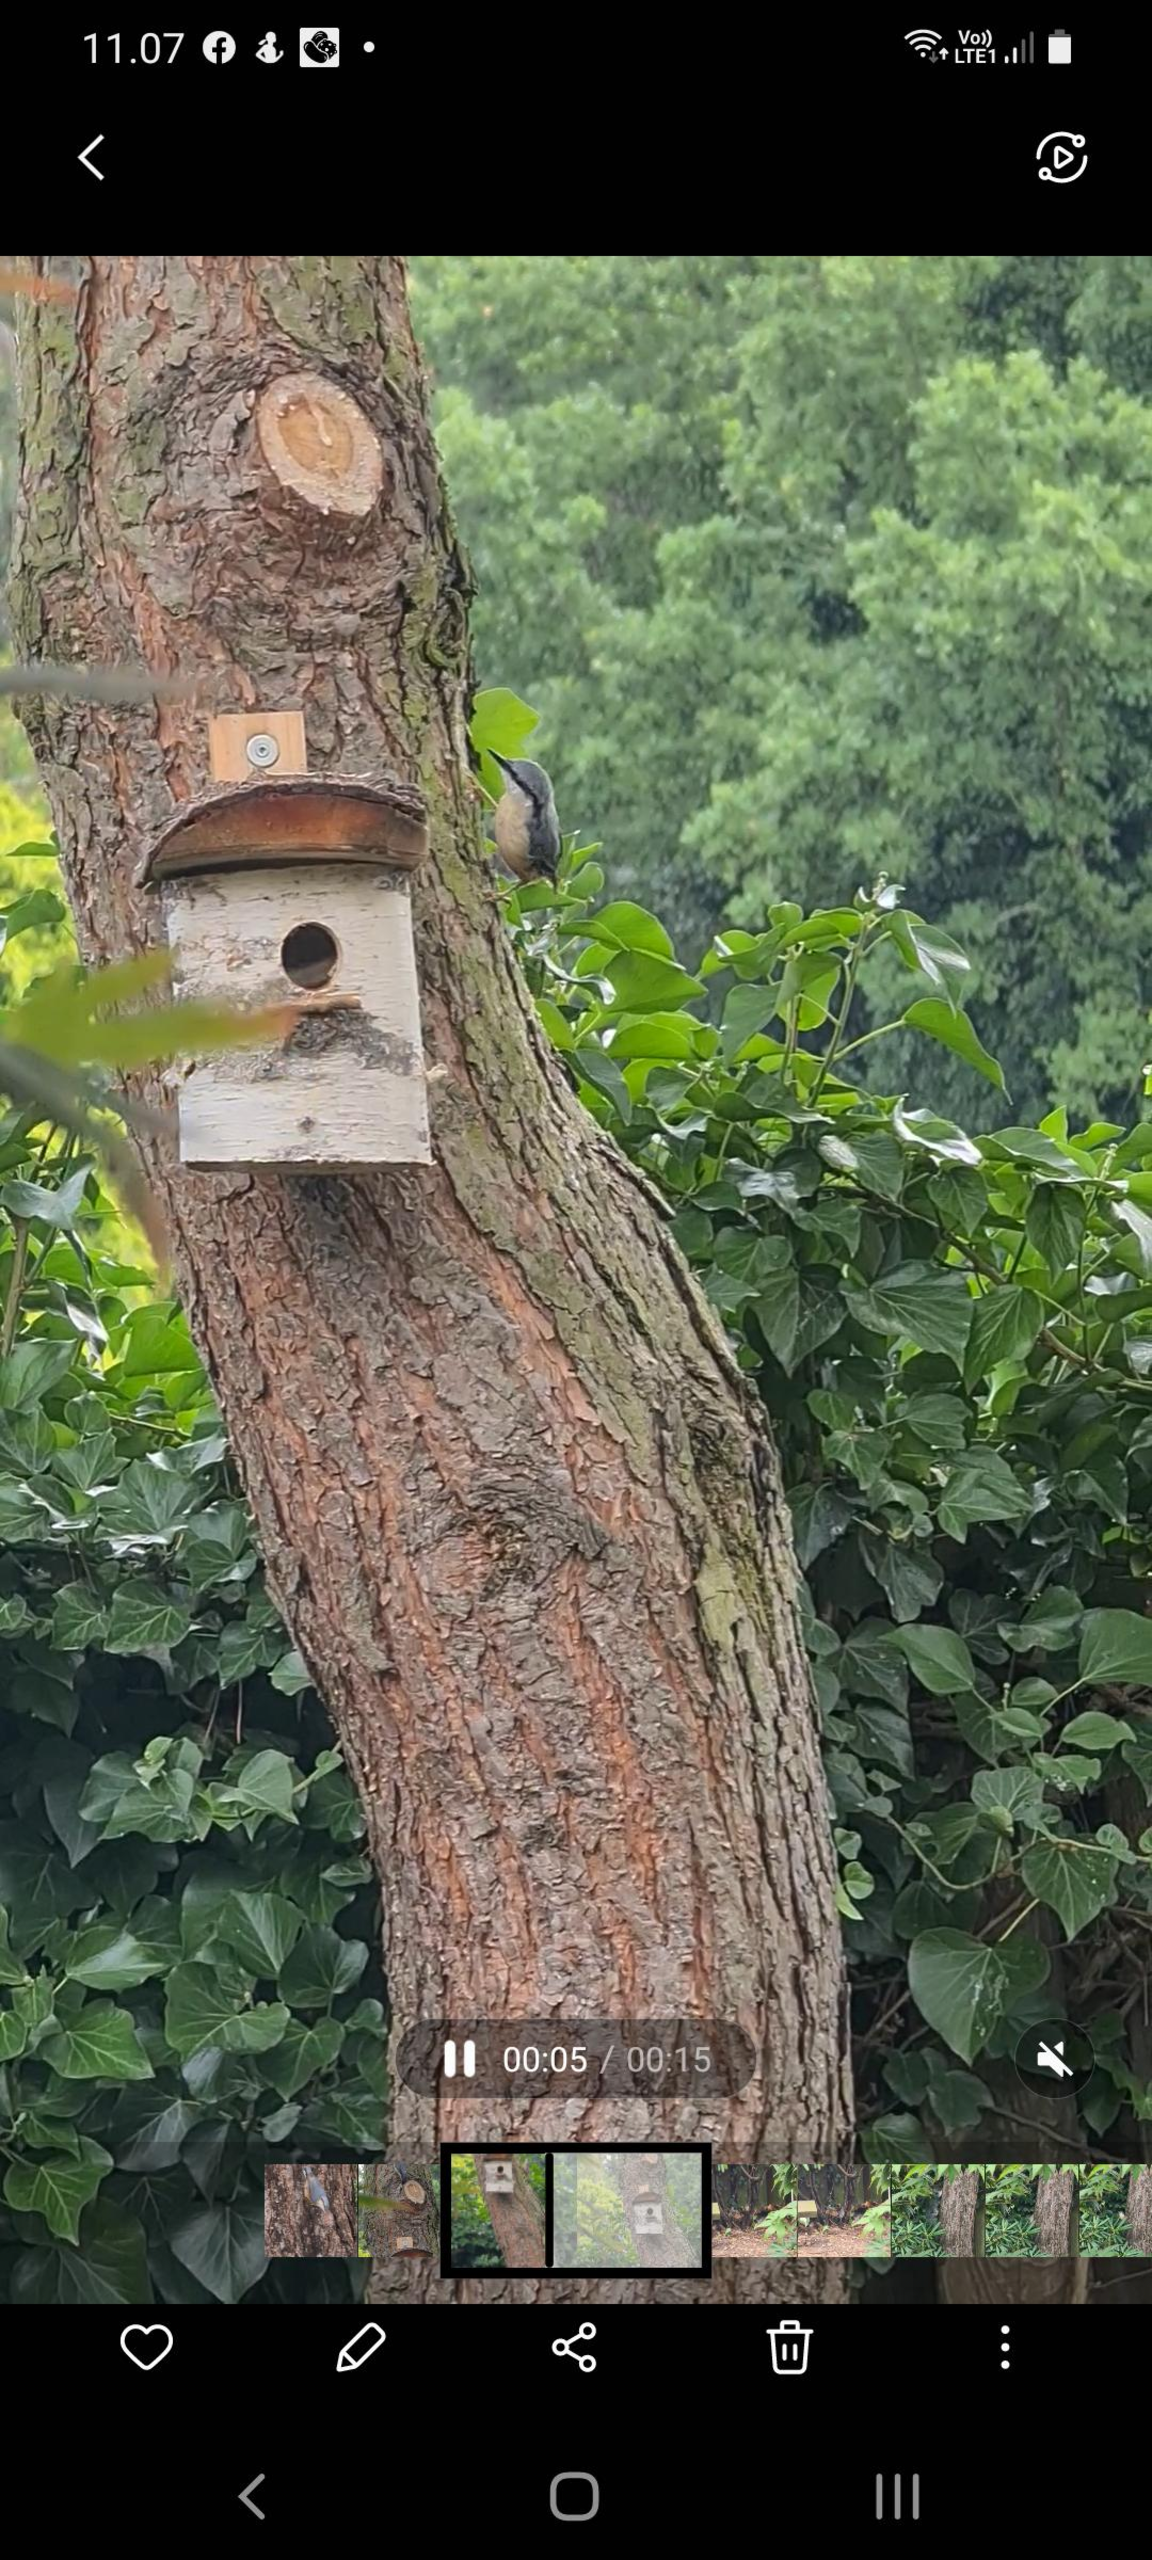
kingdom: Animalia
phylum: Chordata
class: Aves
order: Passeriformes
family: Sittidae
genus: Sitta
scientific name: Sitta europaea
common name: Spætmejse
